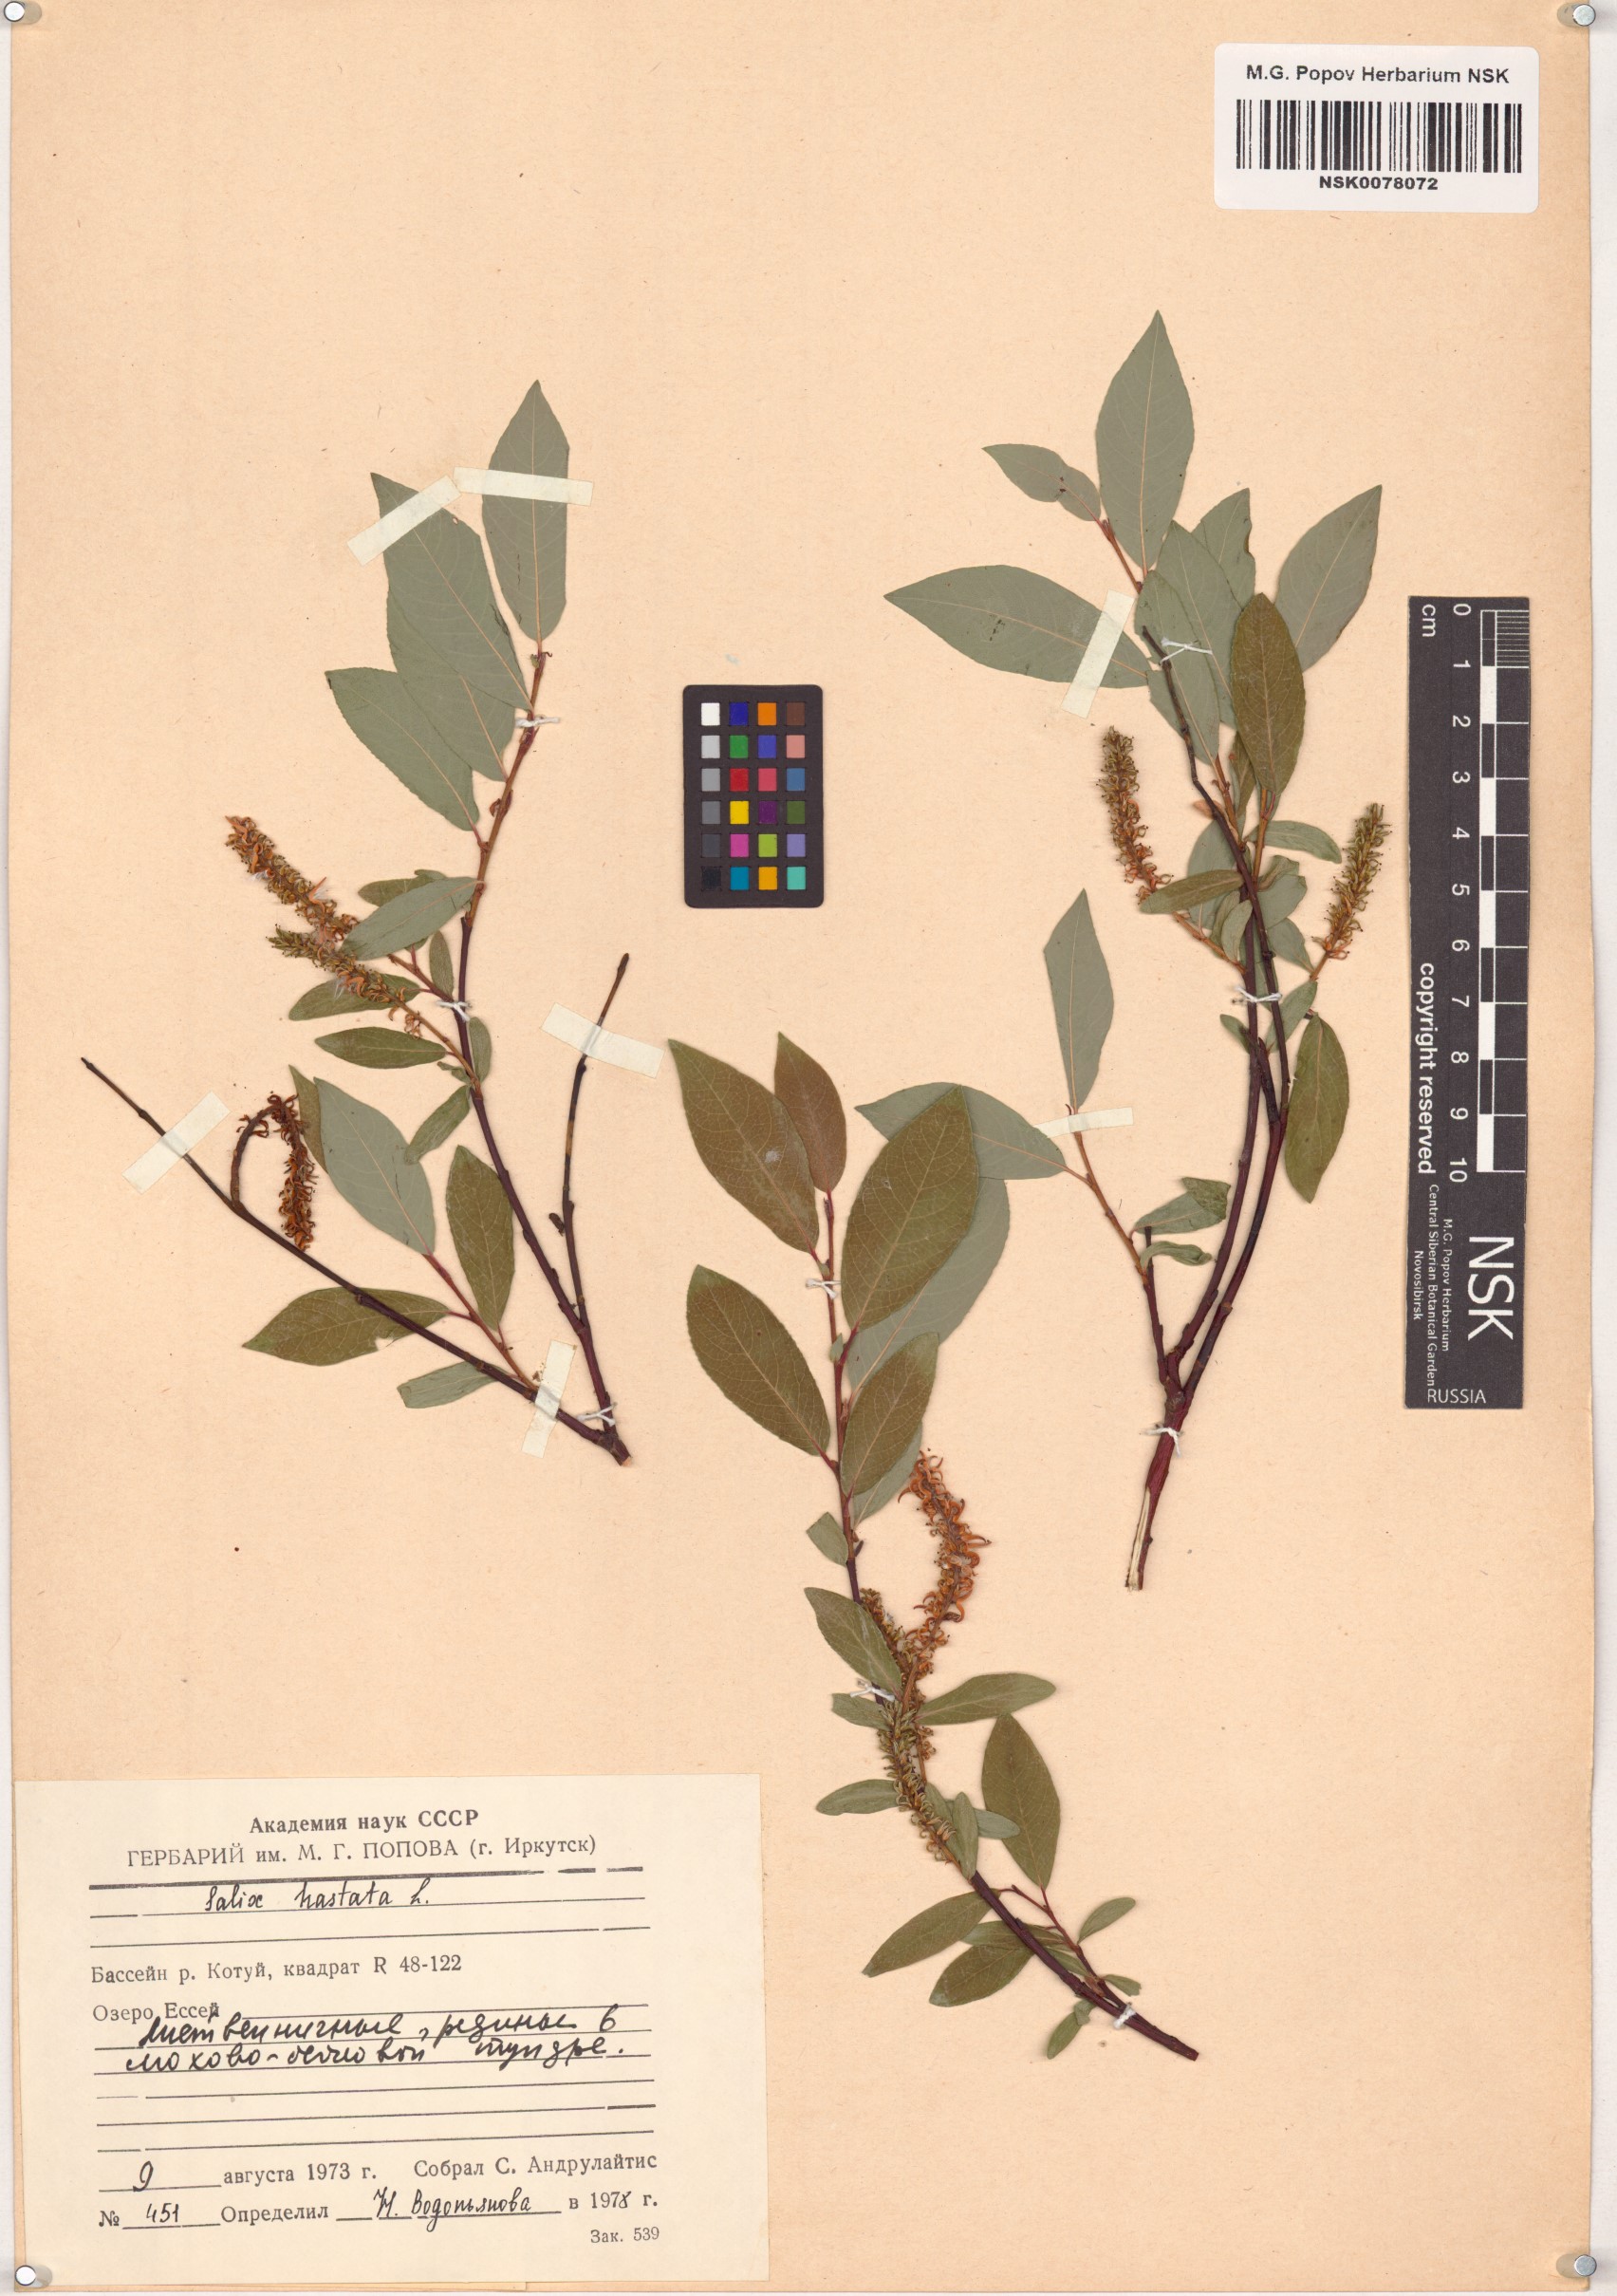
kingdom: Plantae
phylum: Tracheophyta
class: Magnoliopsida
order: Malpighiales
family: Salicaceae
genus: Salix
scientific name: Salix hastata
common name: Halberd willow
